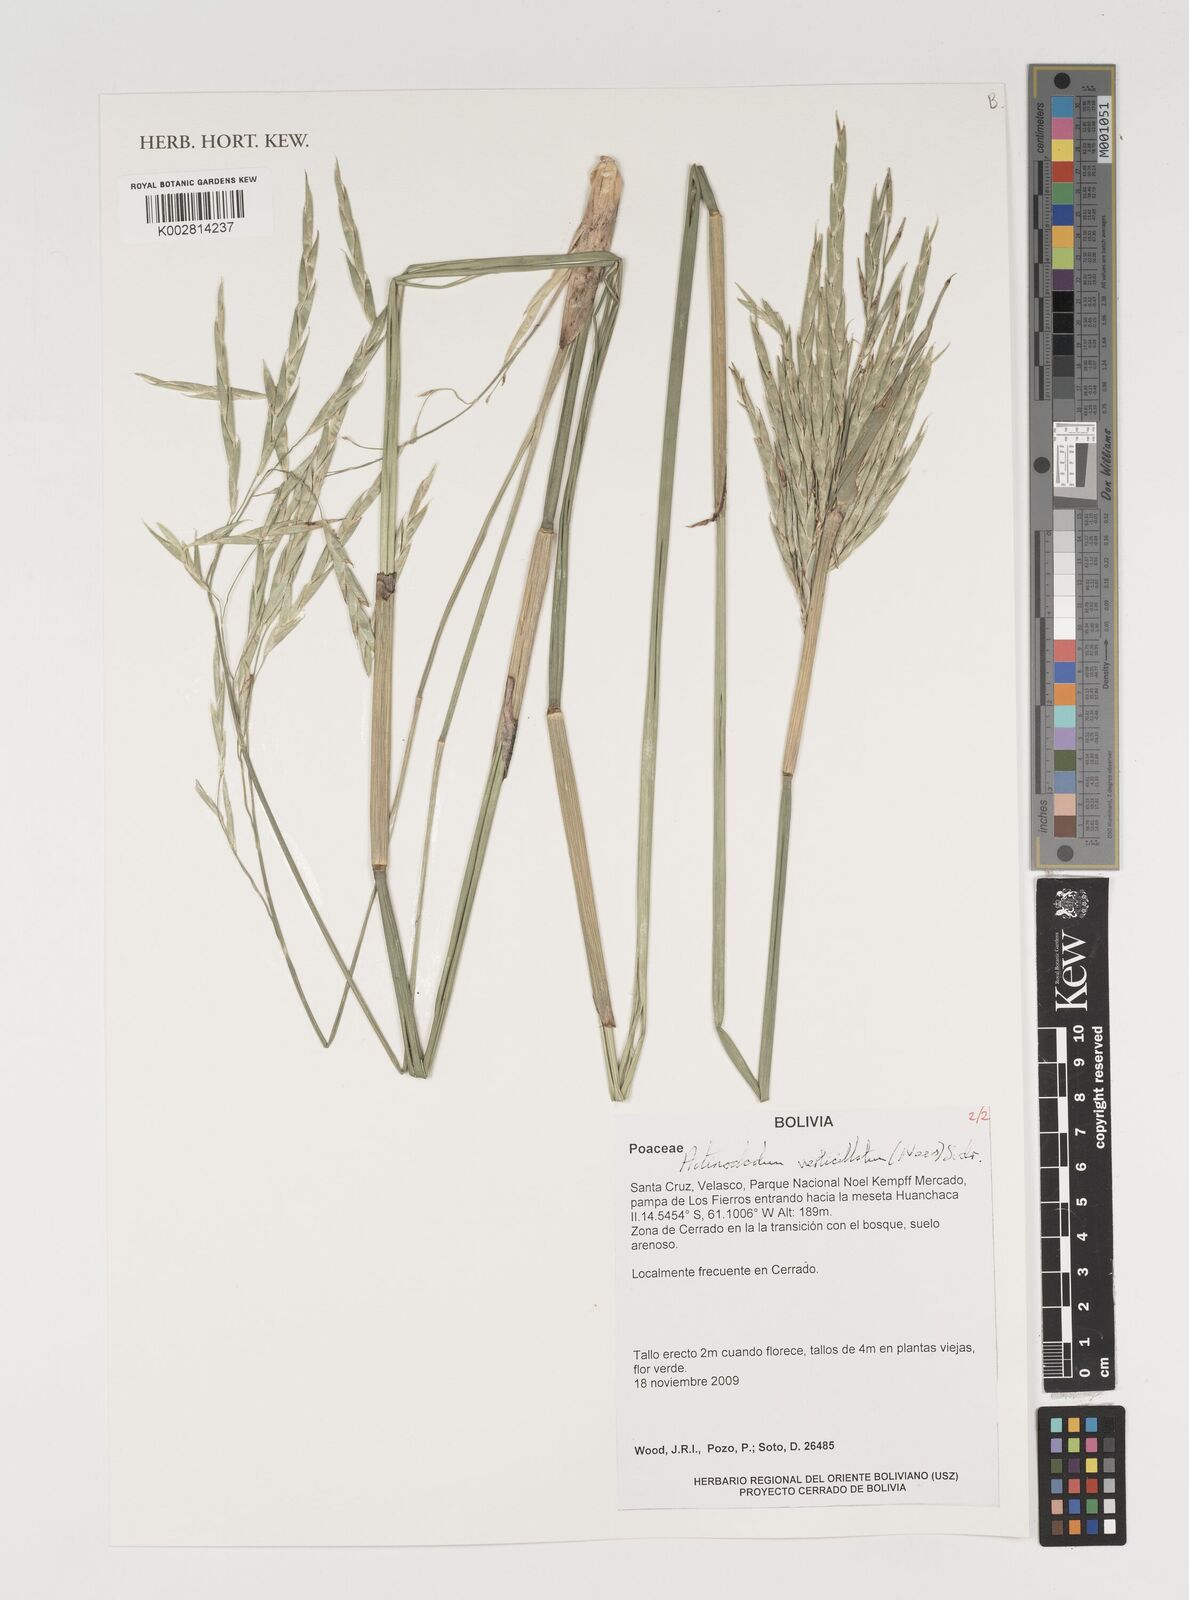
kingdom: Plantae
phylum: Tracheophyta
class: Liliopsida
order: Poales
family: Poaceae
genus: Actinocladum
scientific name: Actinocladum verticillatum
